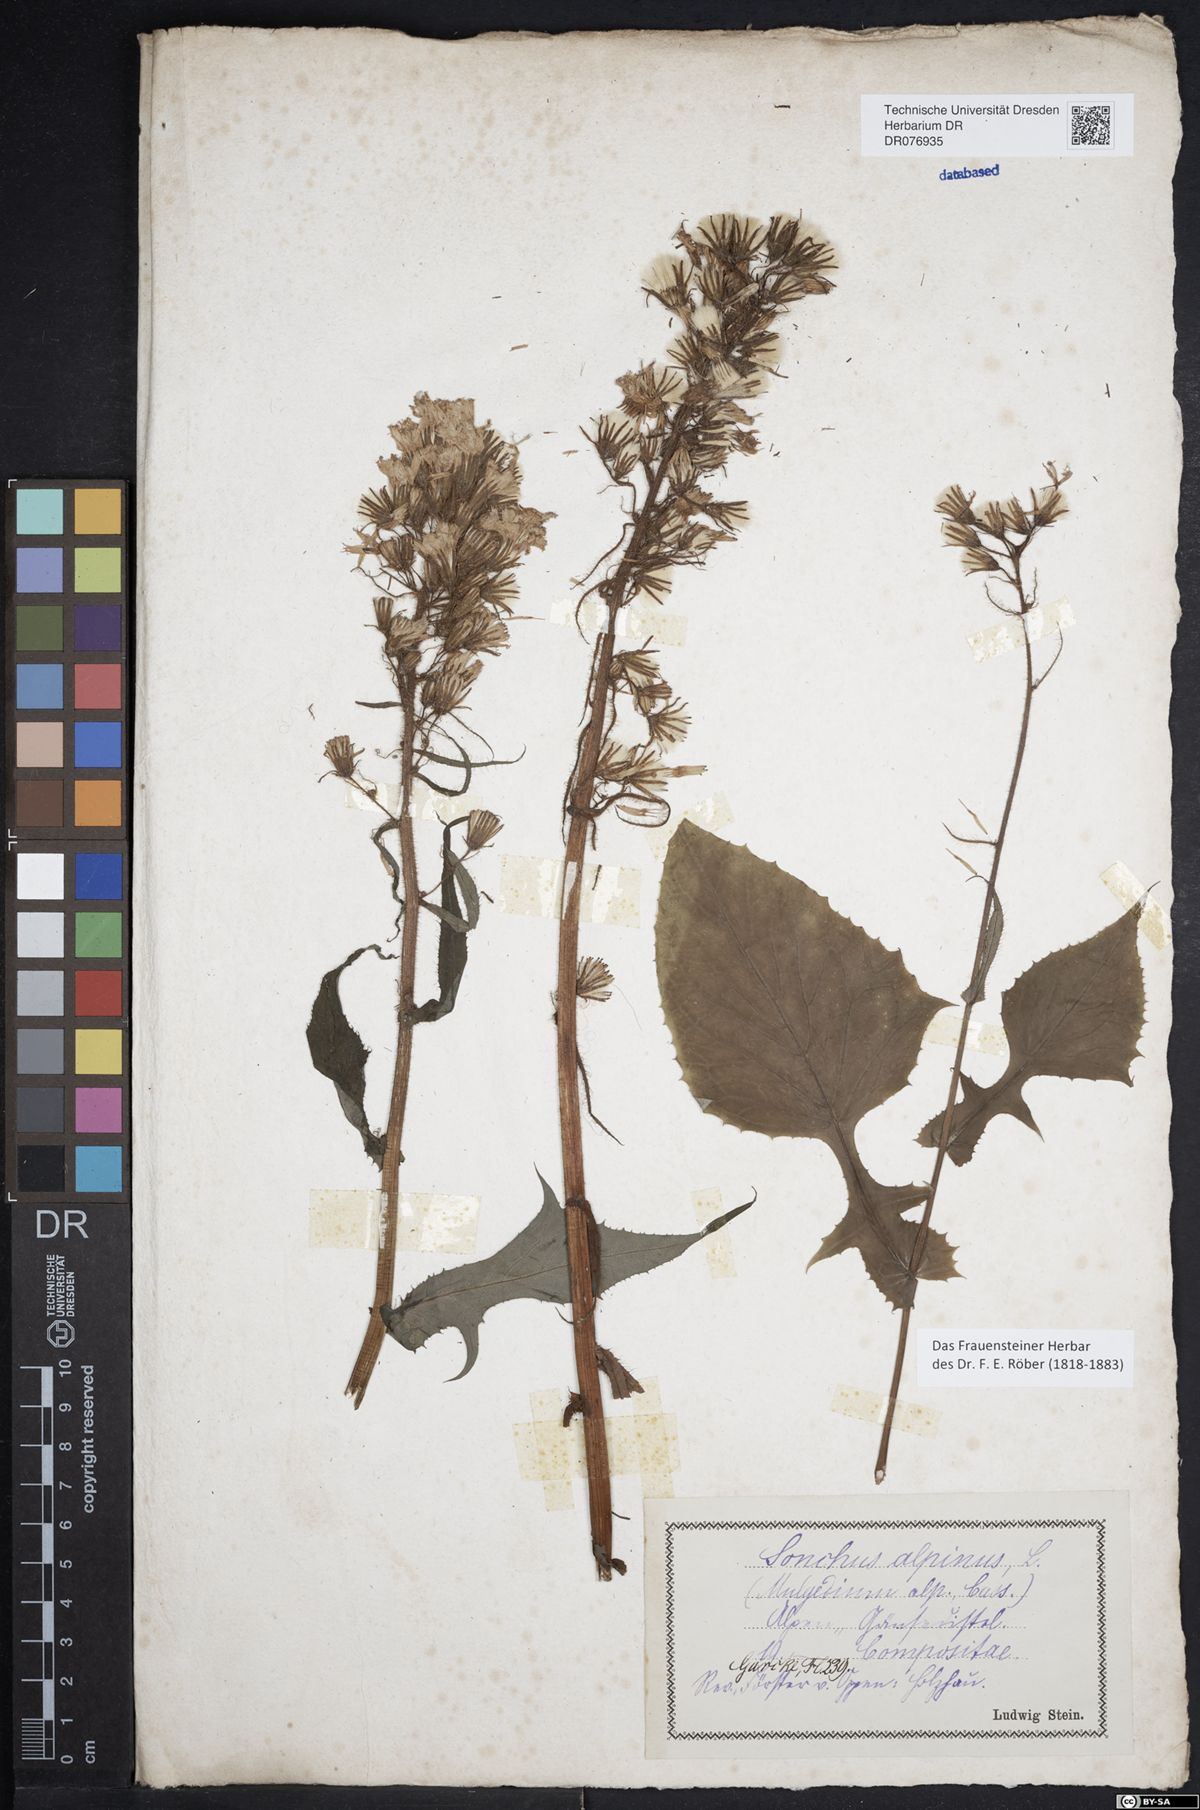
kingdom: Plantae
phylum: Tracheophyta
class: Magnoliopsida
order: Asterales
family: Asteraceae
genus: Cicerbita
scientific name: Cicerbita alpina
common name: Alpine blue-sow-thistle
